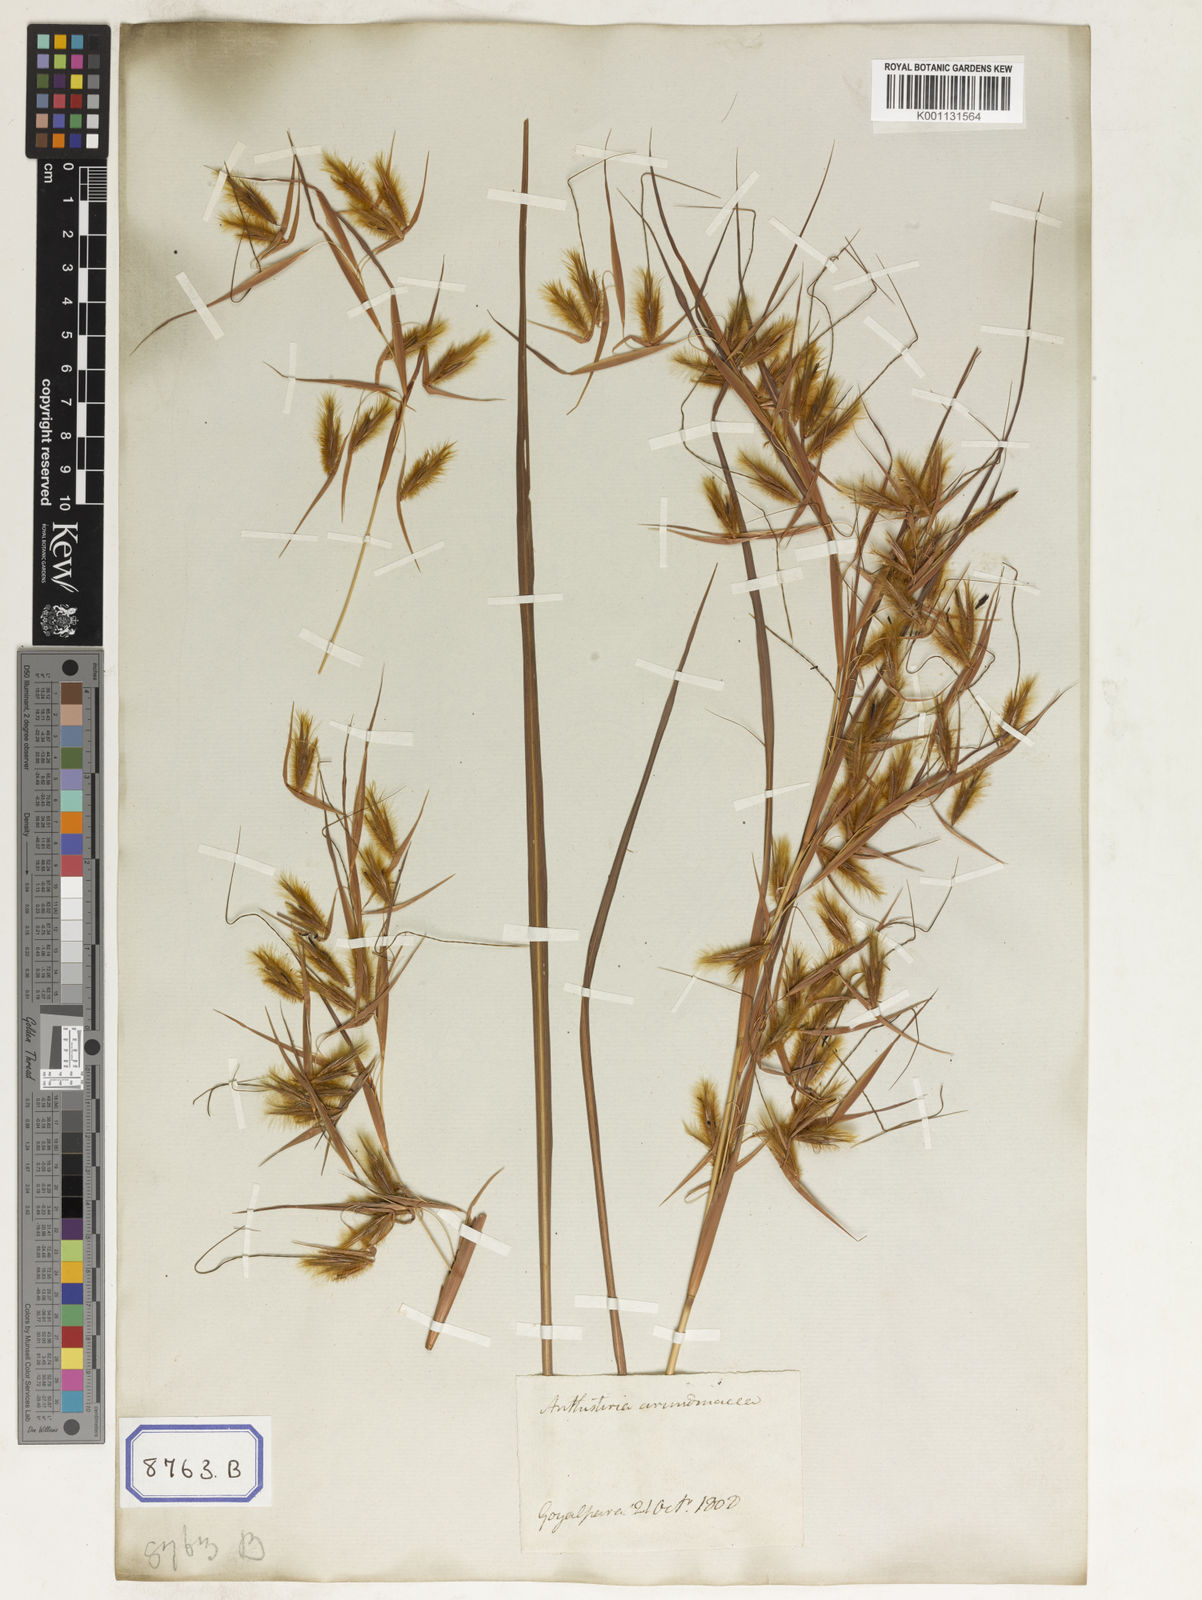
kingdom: Plantae
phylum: Tracheophyta
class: Liliopsida
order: Poales
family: Poaceae
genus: Themeda
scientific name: Themeda
